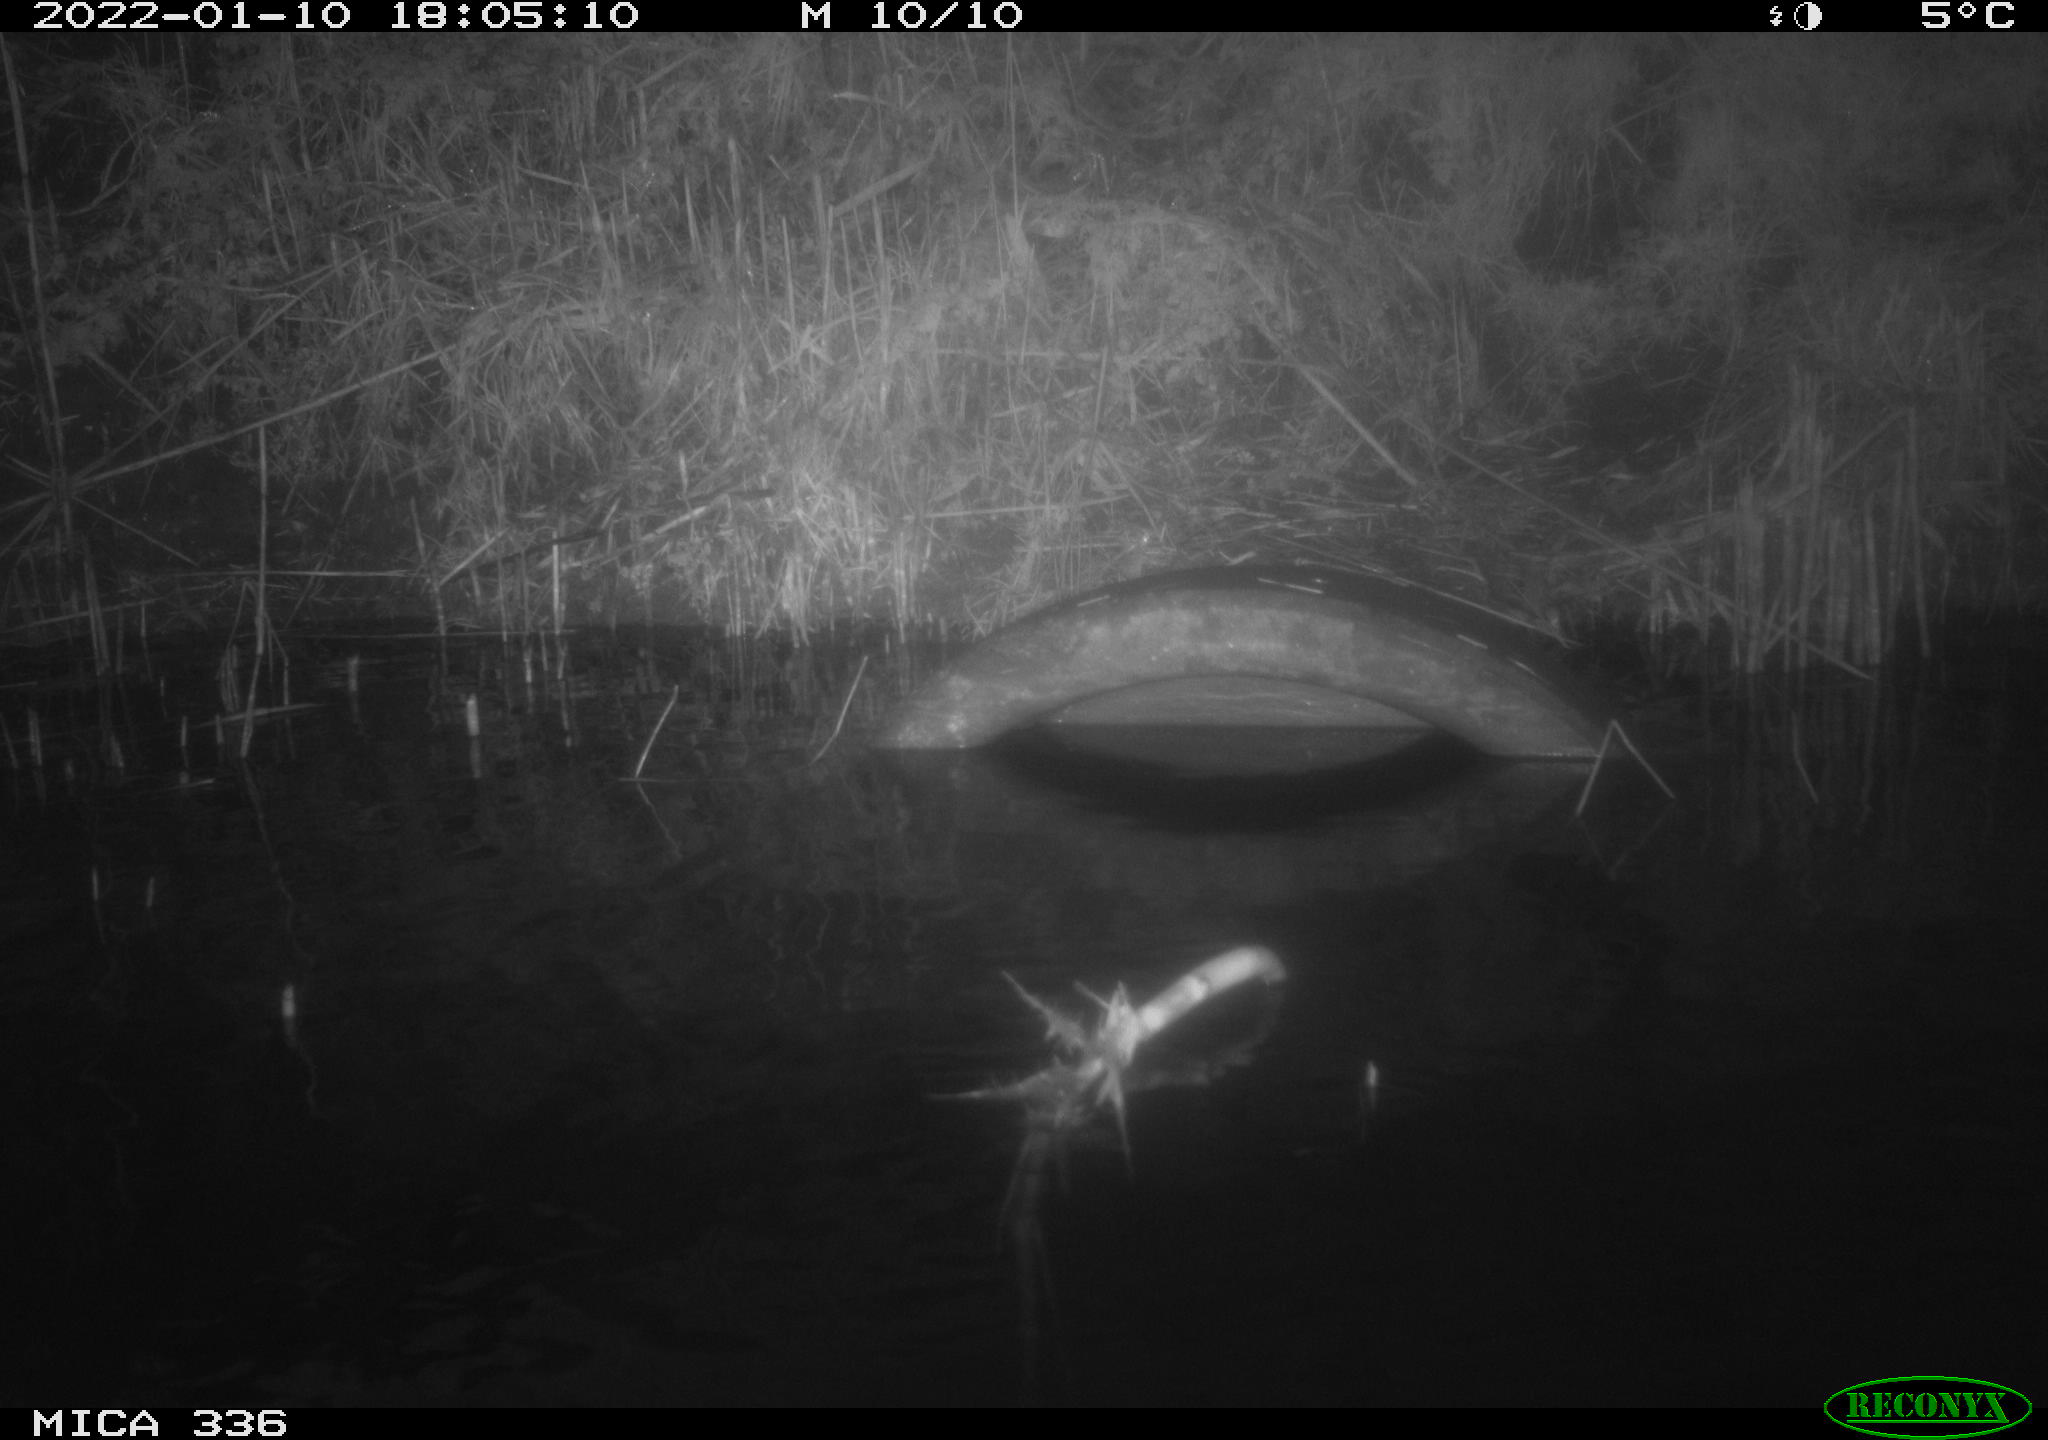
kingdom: Animalia
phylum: Chordata
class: Aves
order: Anseriformes
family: Anatidae
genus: Anas
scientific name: Anas platyrhynchos
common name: Mallard
